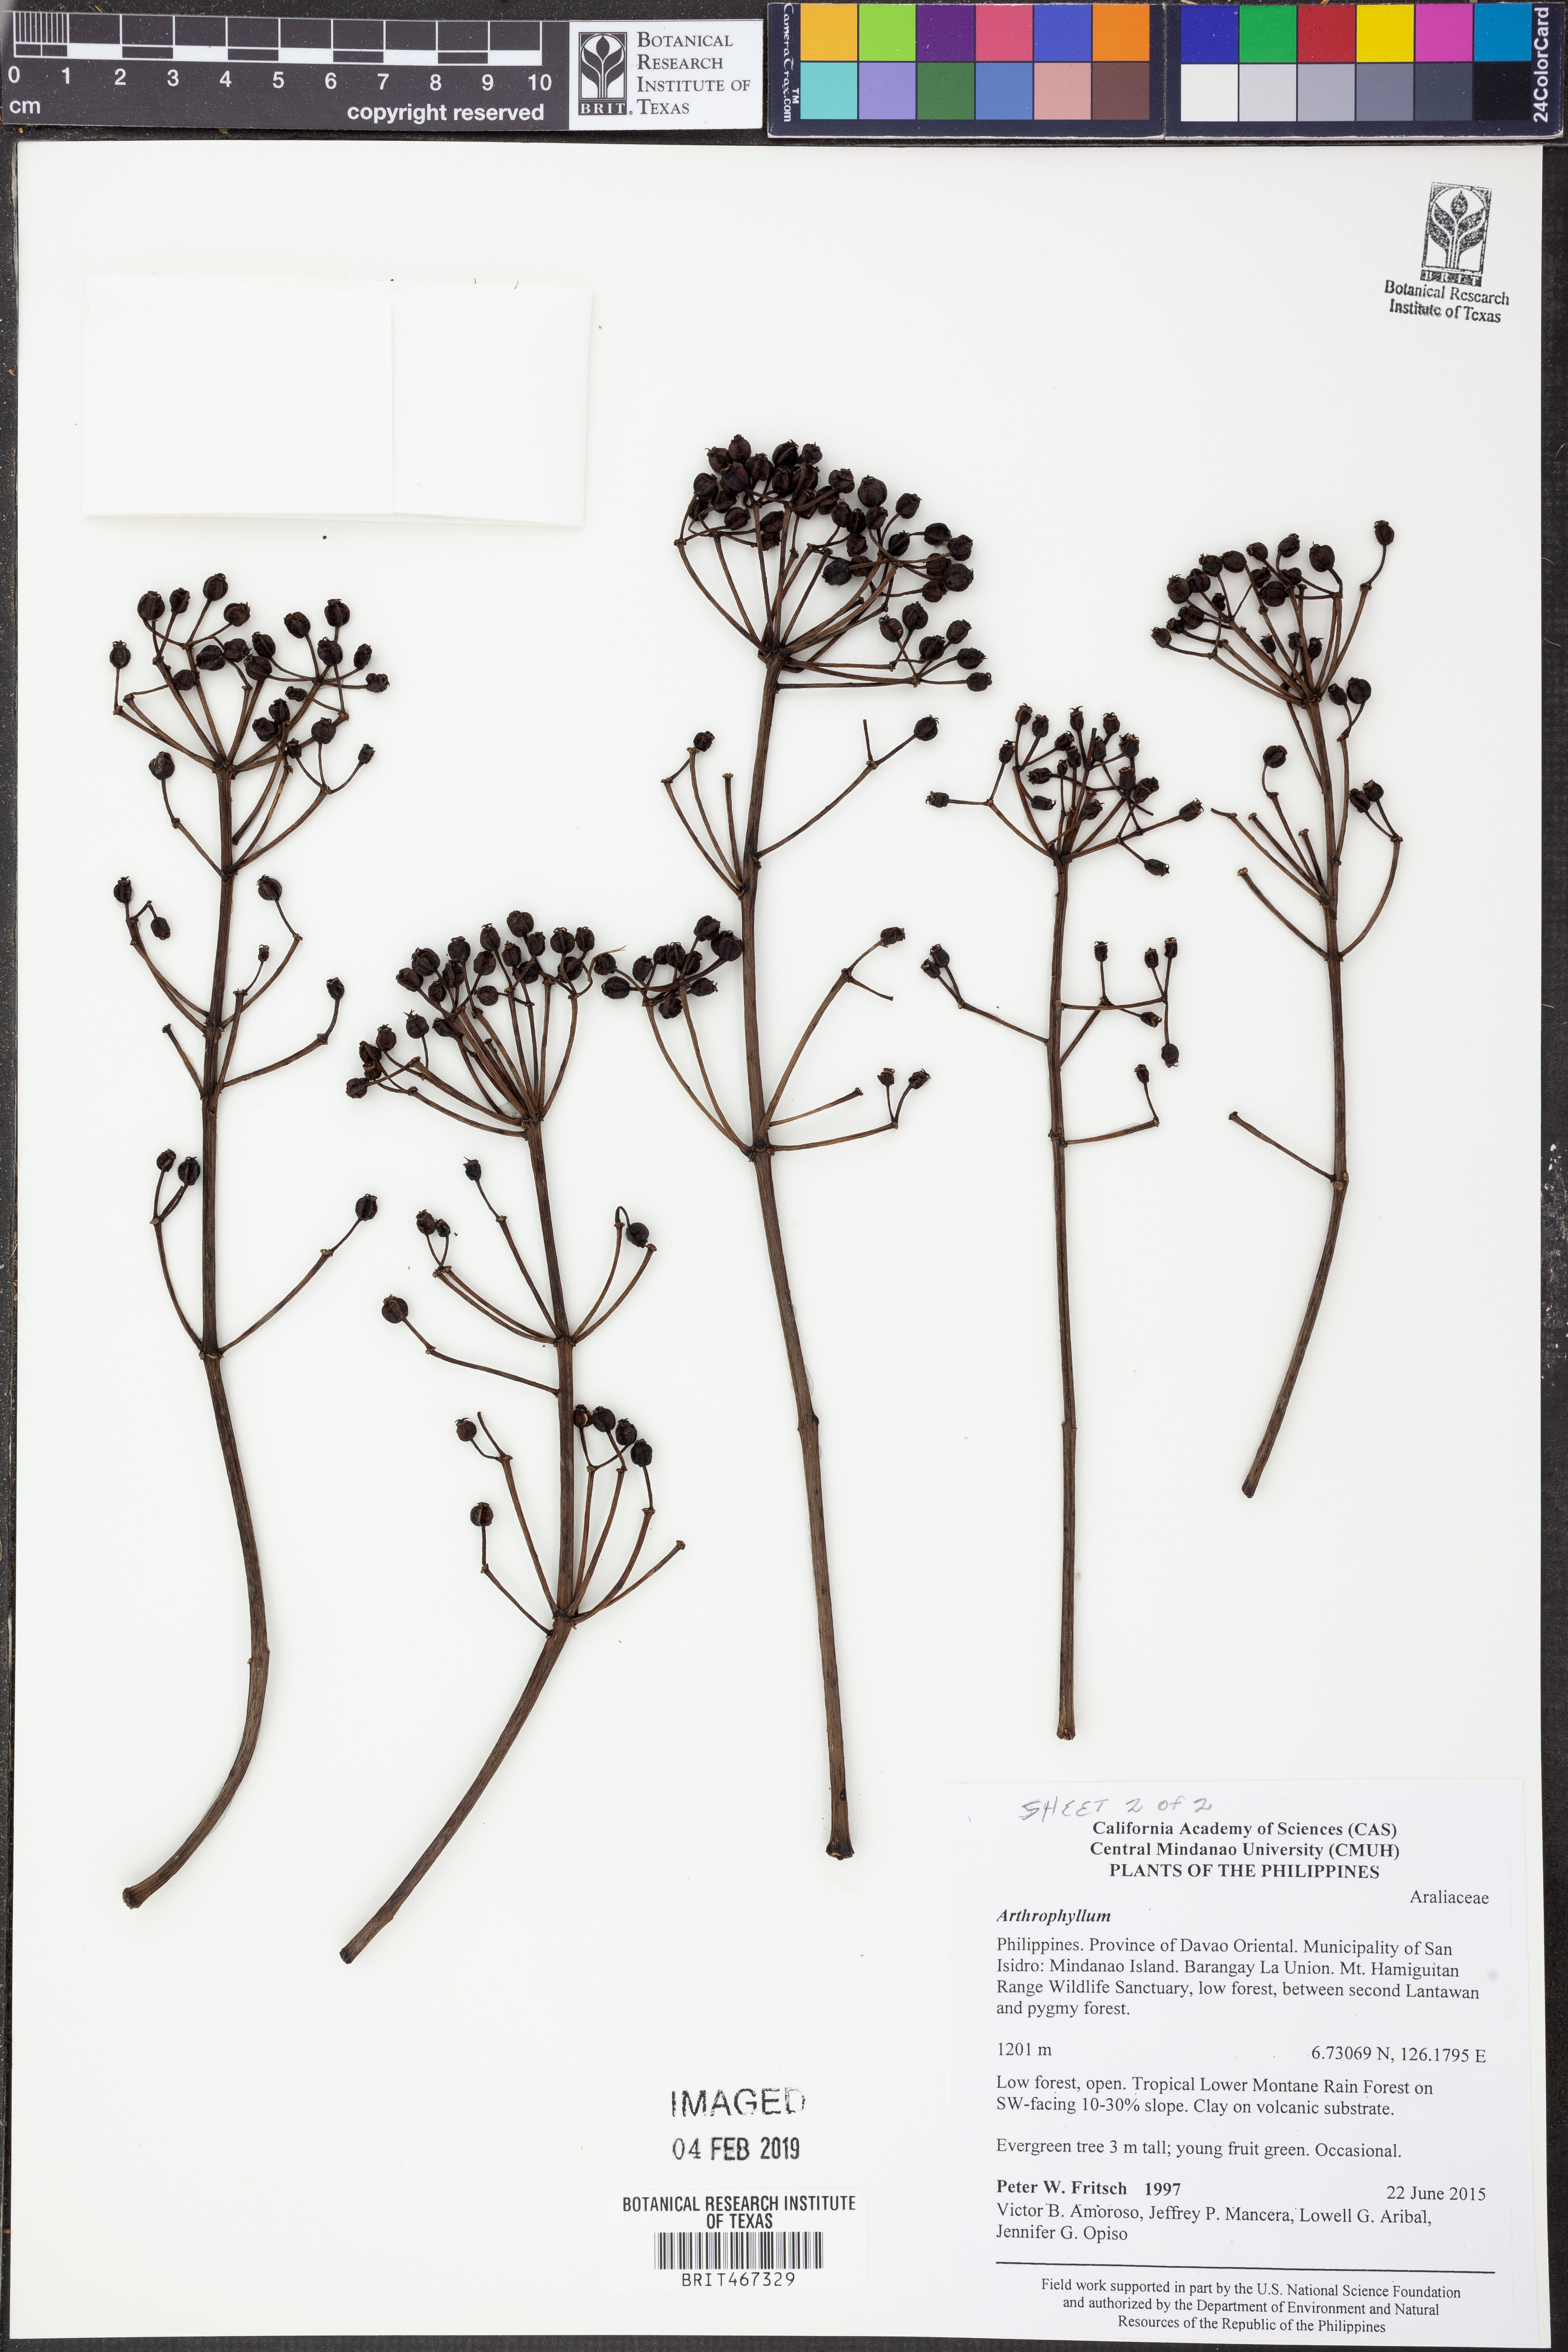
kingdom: Plantae
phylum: Tracheophyta
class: Magnoliopsida
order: Lamiales
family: Bignoniaceae
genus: Arthrophyllum
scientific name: Arthrophyllum
